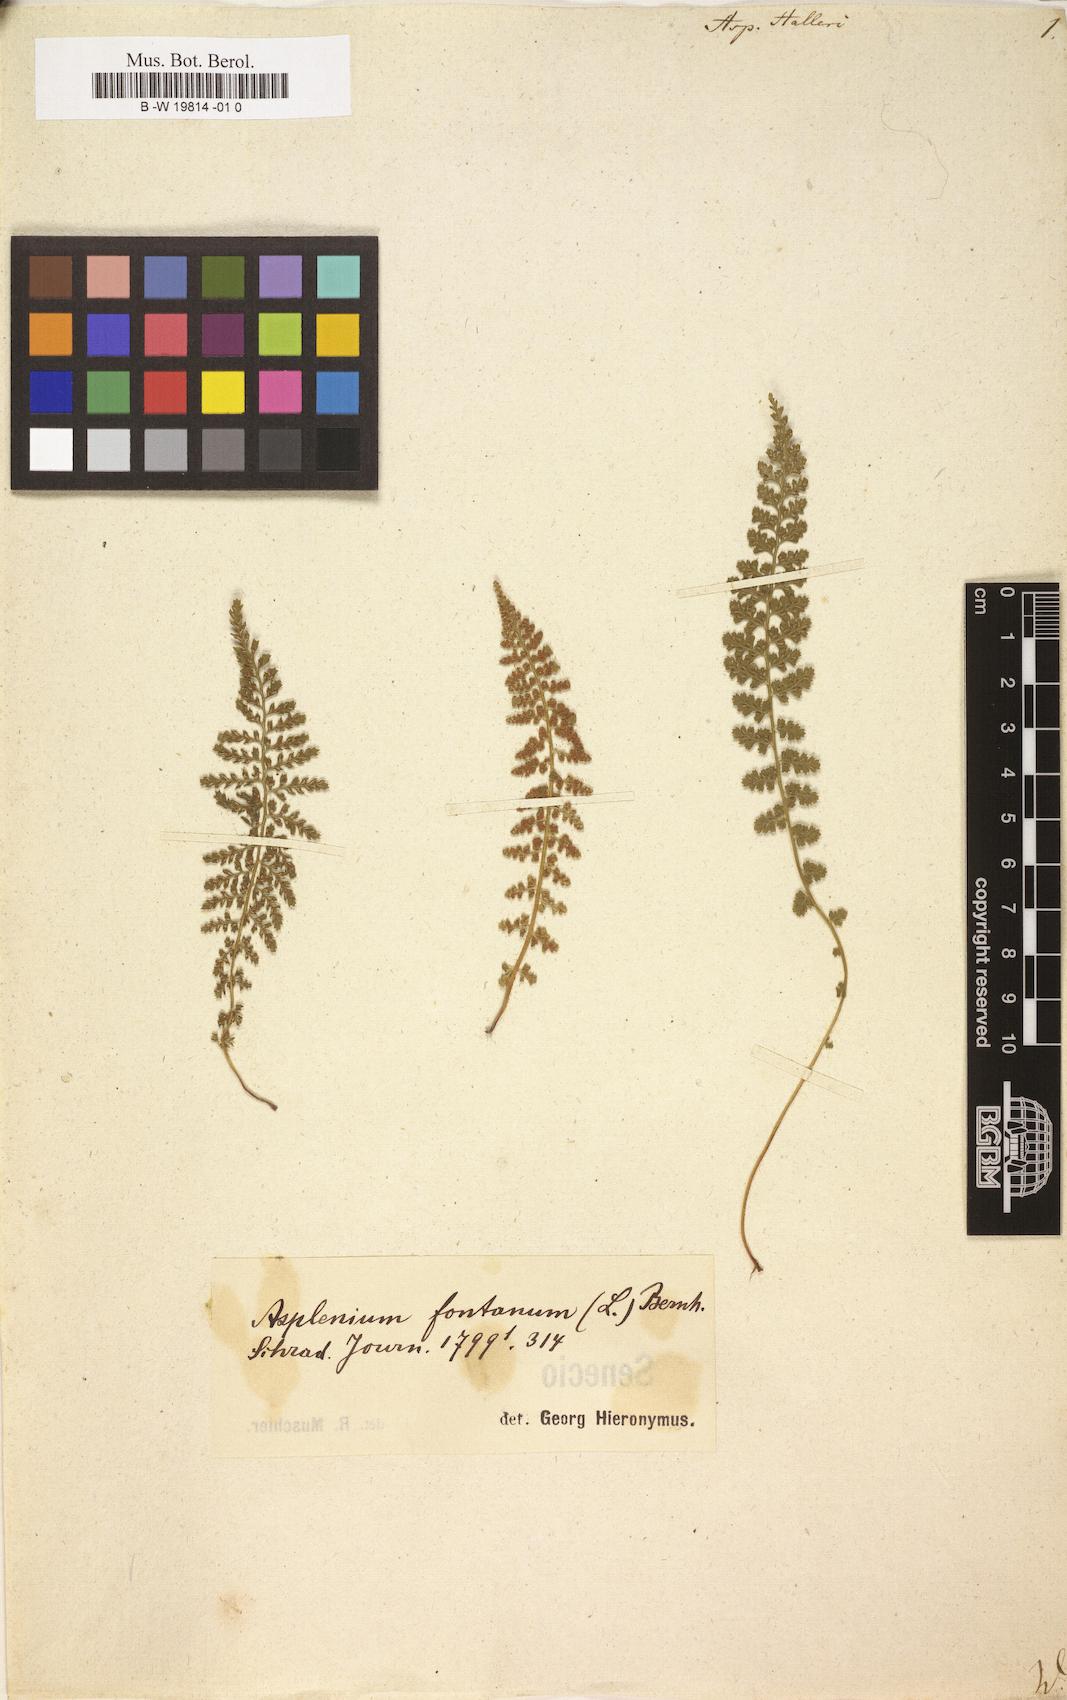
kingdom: Plantae
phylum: Tracheophyta
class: Polypodiopsida
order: Polypodiales
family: Aspleniaceae
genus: Asplenium
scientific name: Asplenium fontanum
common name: Fountain spleenwort
